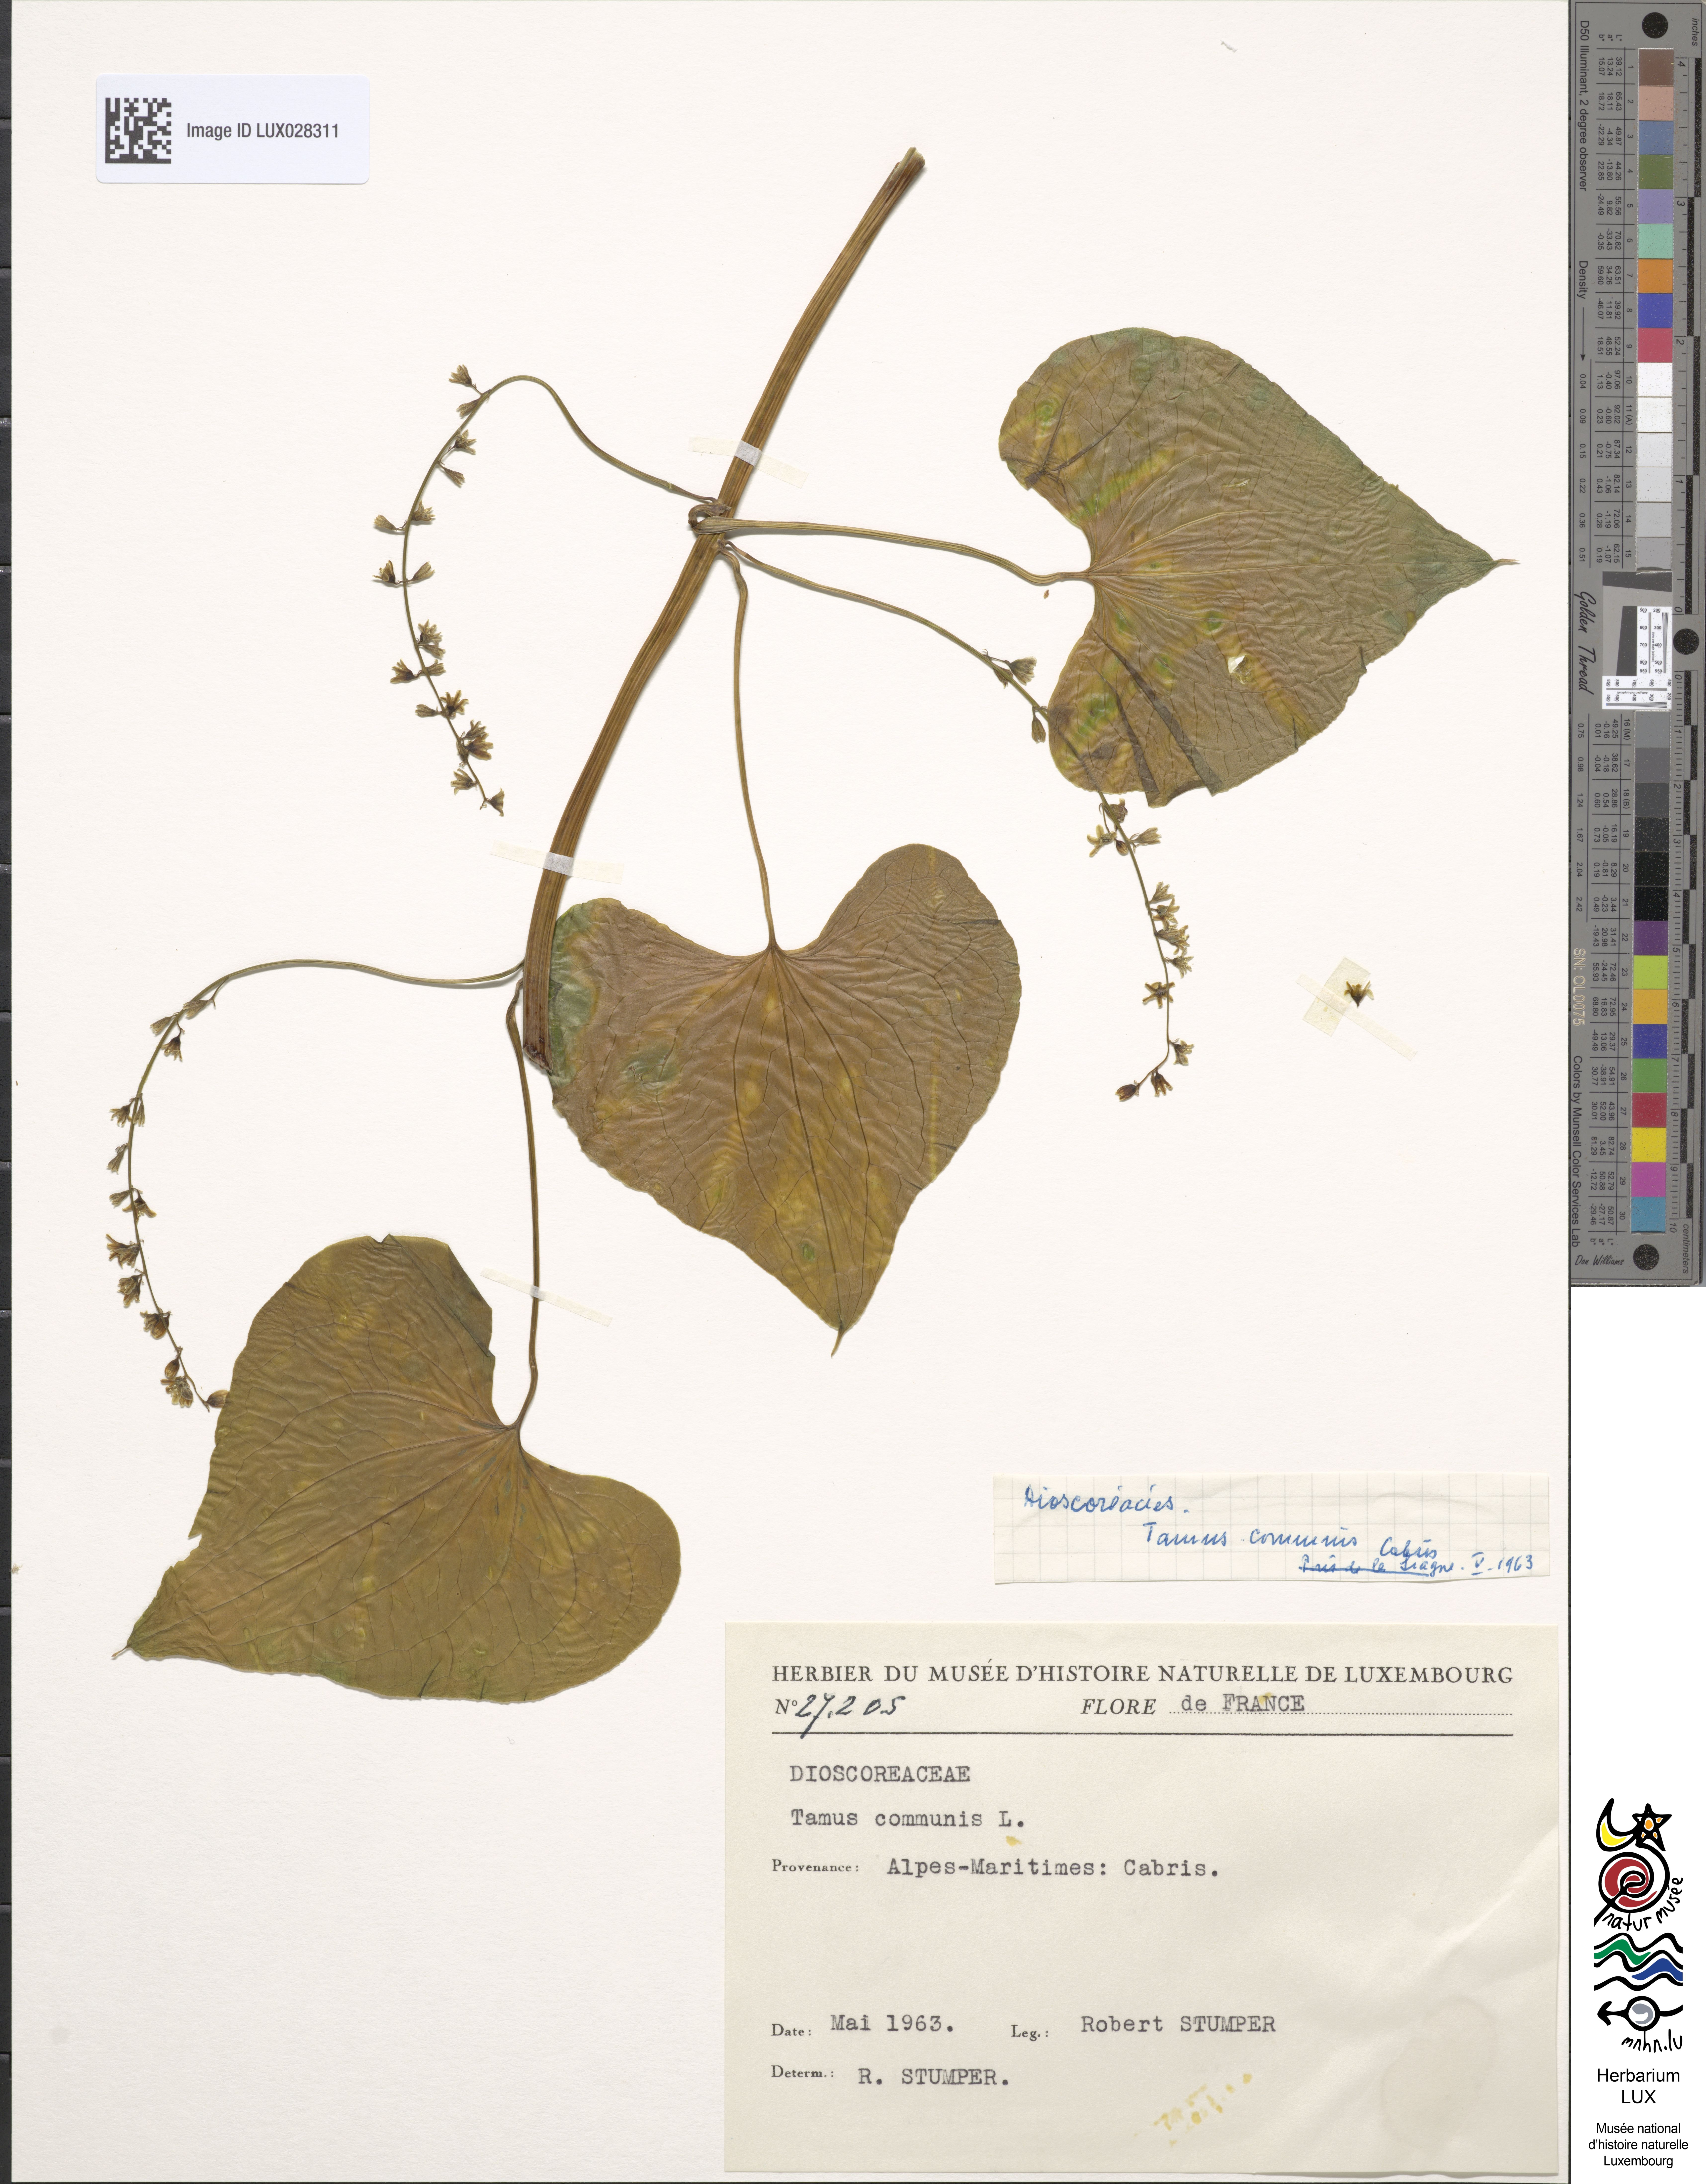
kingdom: Plantae
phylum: Tracheophyta
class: Liliopsida
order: Dioscoreales
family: Dioscoreaceae
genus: Dioscorea
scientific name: Dioscorea communis
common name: Black-bindweed
